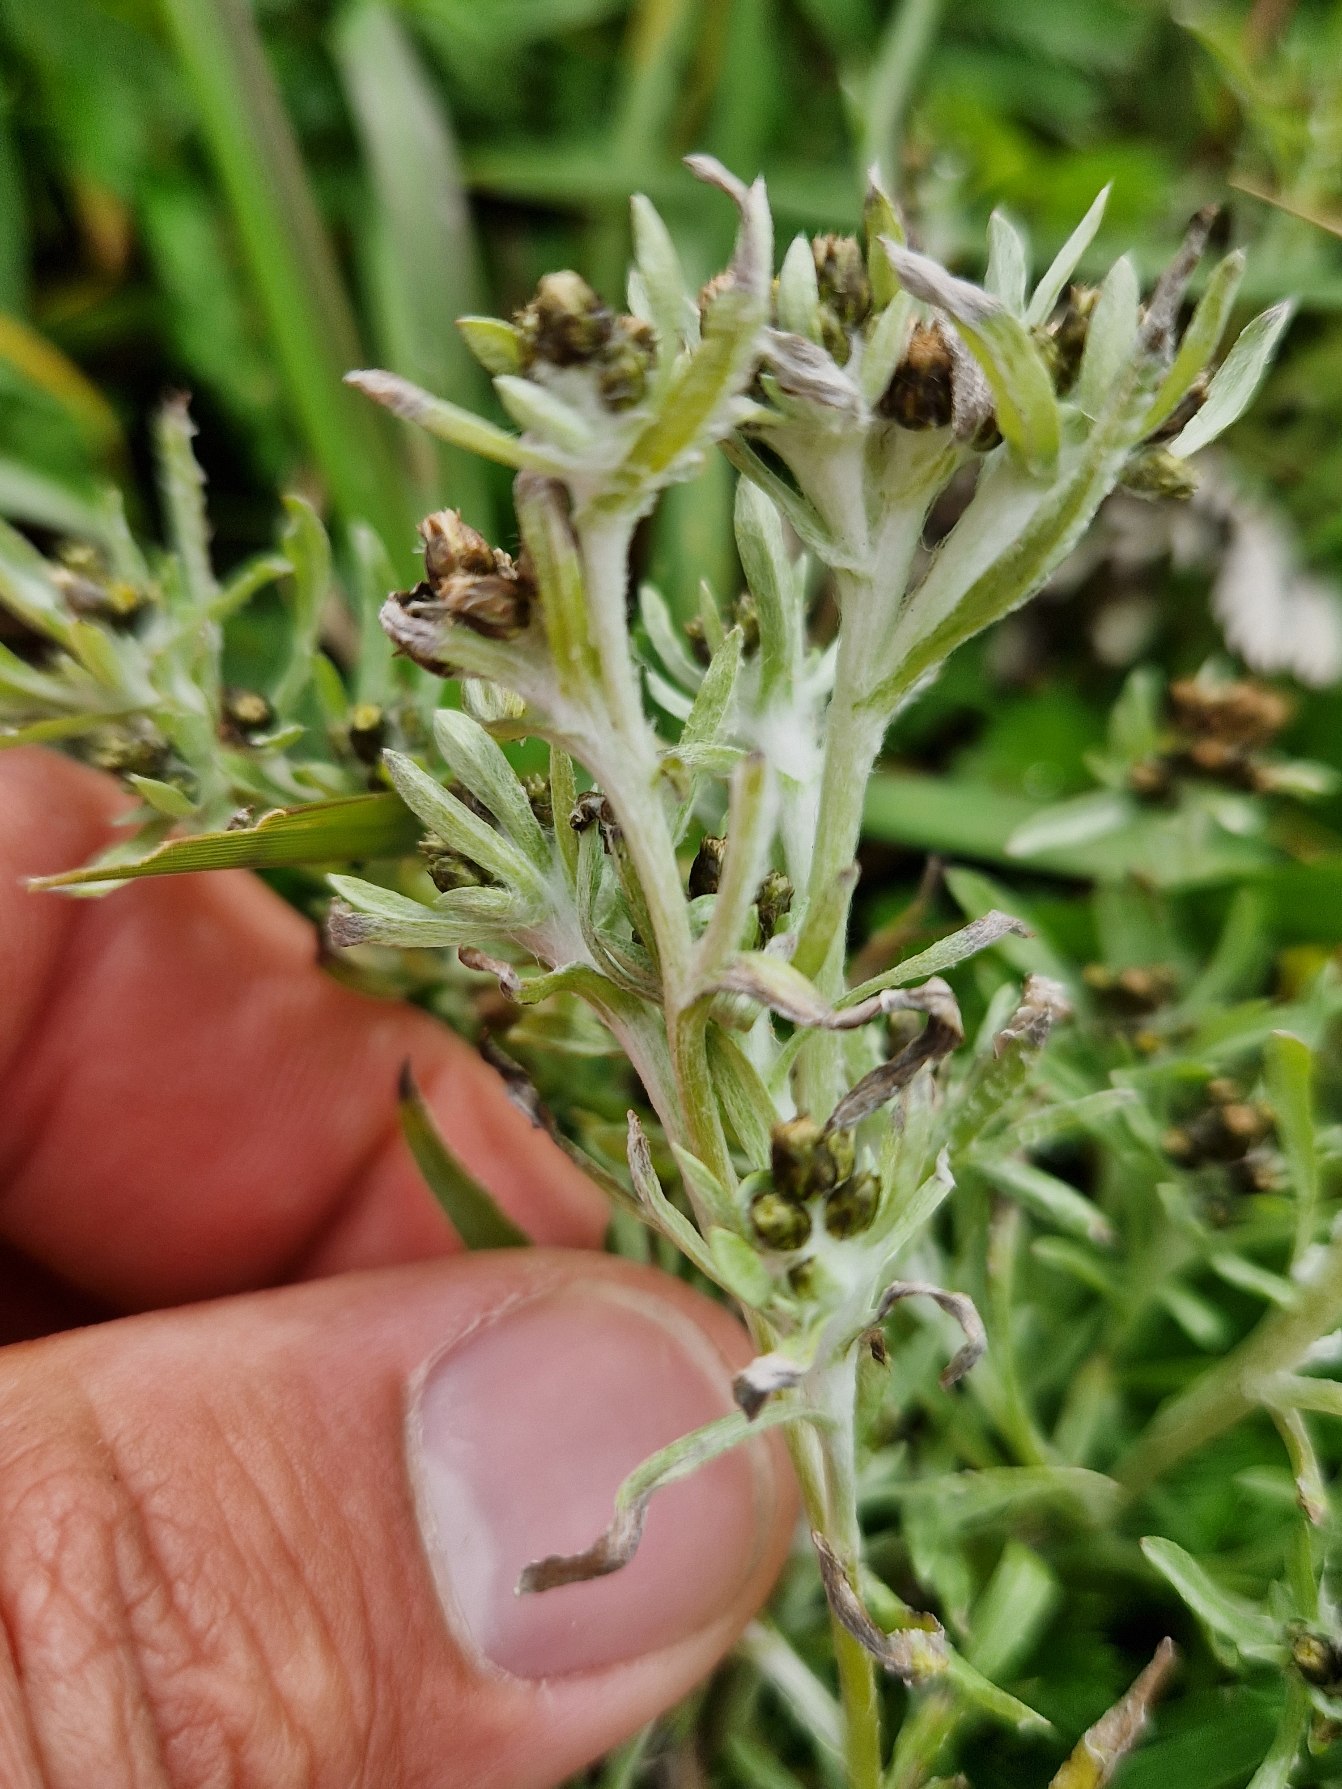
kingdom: Plantae
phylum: Tracheophyta
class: Magnoliopsida
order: Asterales
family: Asteraceae
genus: Gnaphalium
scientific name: Gnaphalium uliginosum
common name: Sump-evighedsblomst
